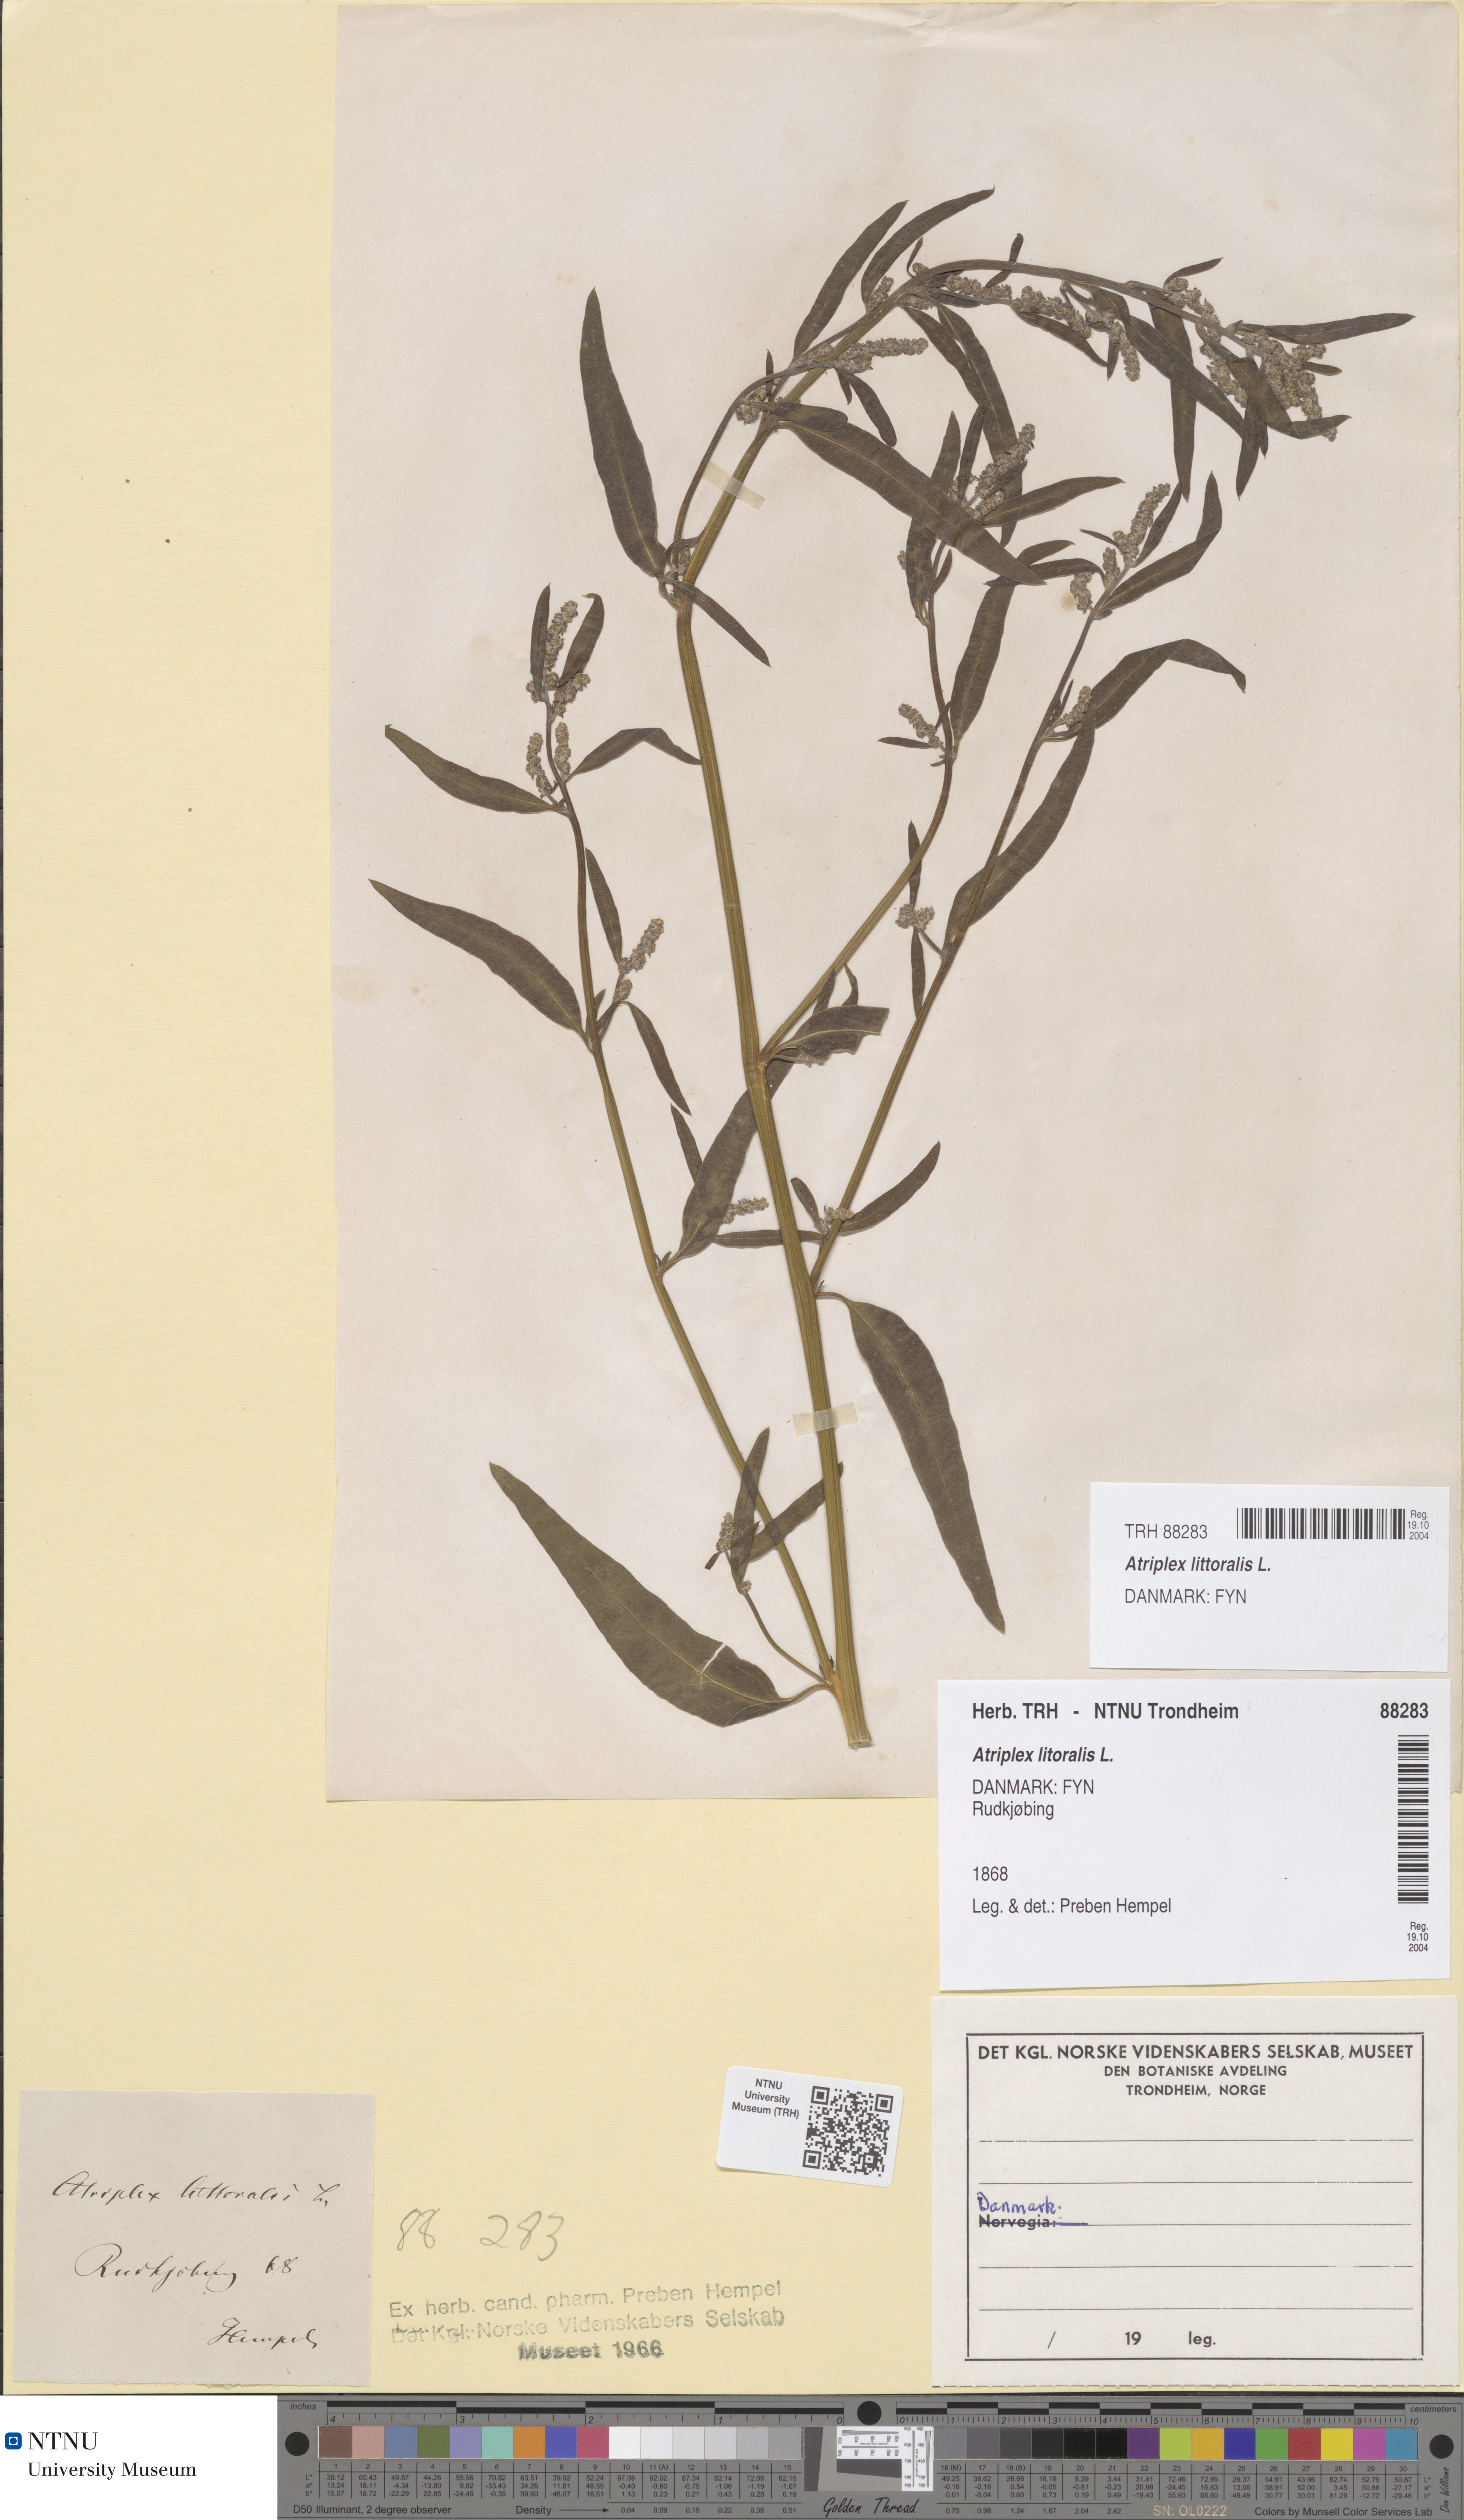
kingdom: Plantae
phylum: Tracheophyta
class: Magnoliopsida
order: Caryophyllales
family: Amaranthaceae
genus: Atriplex
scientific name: Atriplex littoralis
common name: Grass-leaved orache
